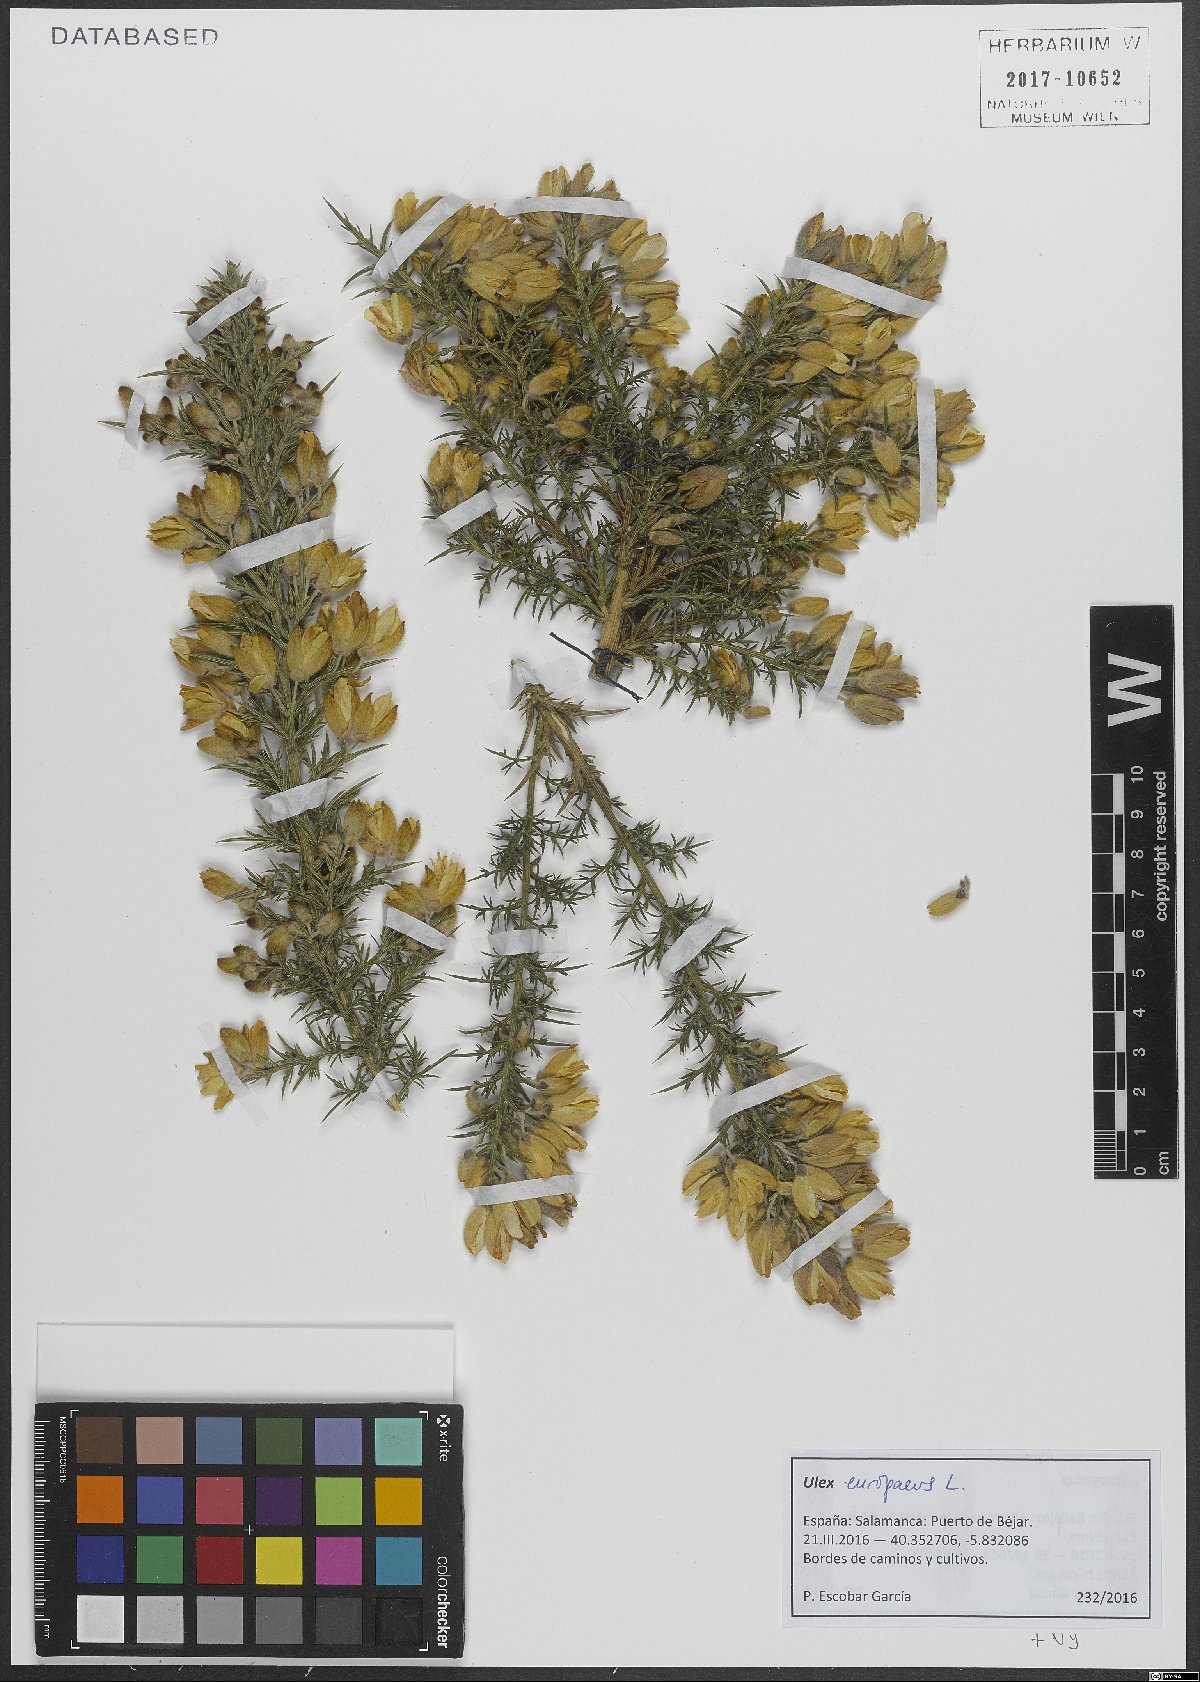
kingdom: Plantae
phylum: Tracheophyta
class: Magnoliopsida
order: Fabales
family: Fabaceae
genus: Ulex
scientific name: Ulex europaeus
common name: Common gorse
